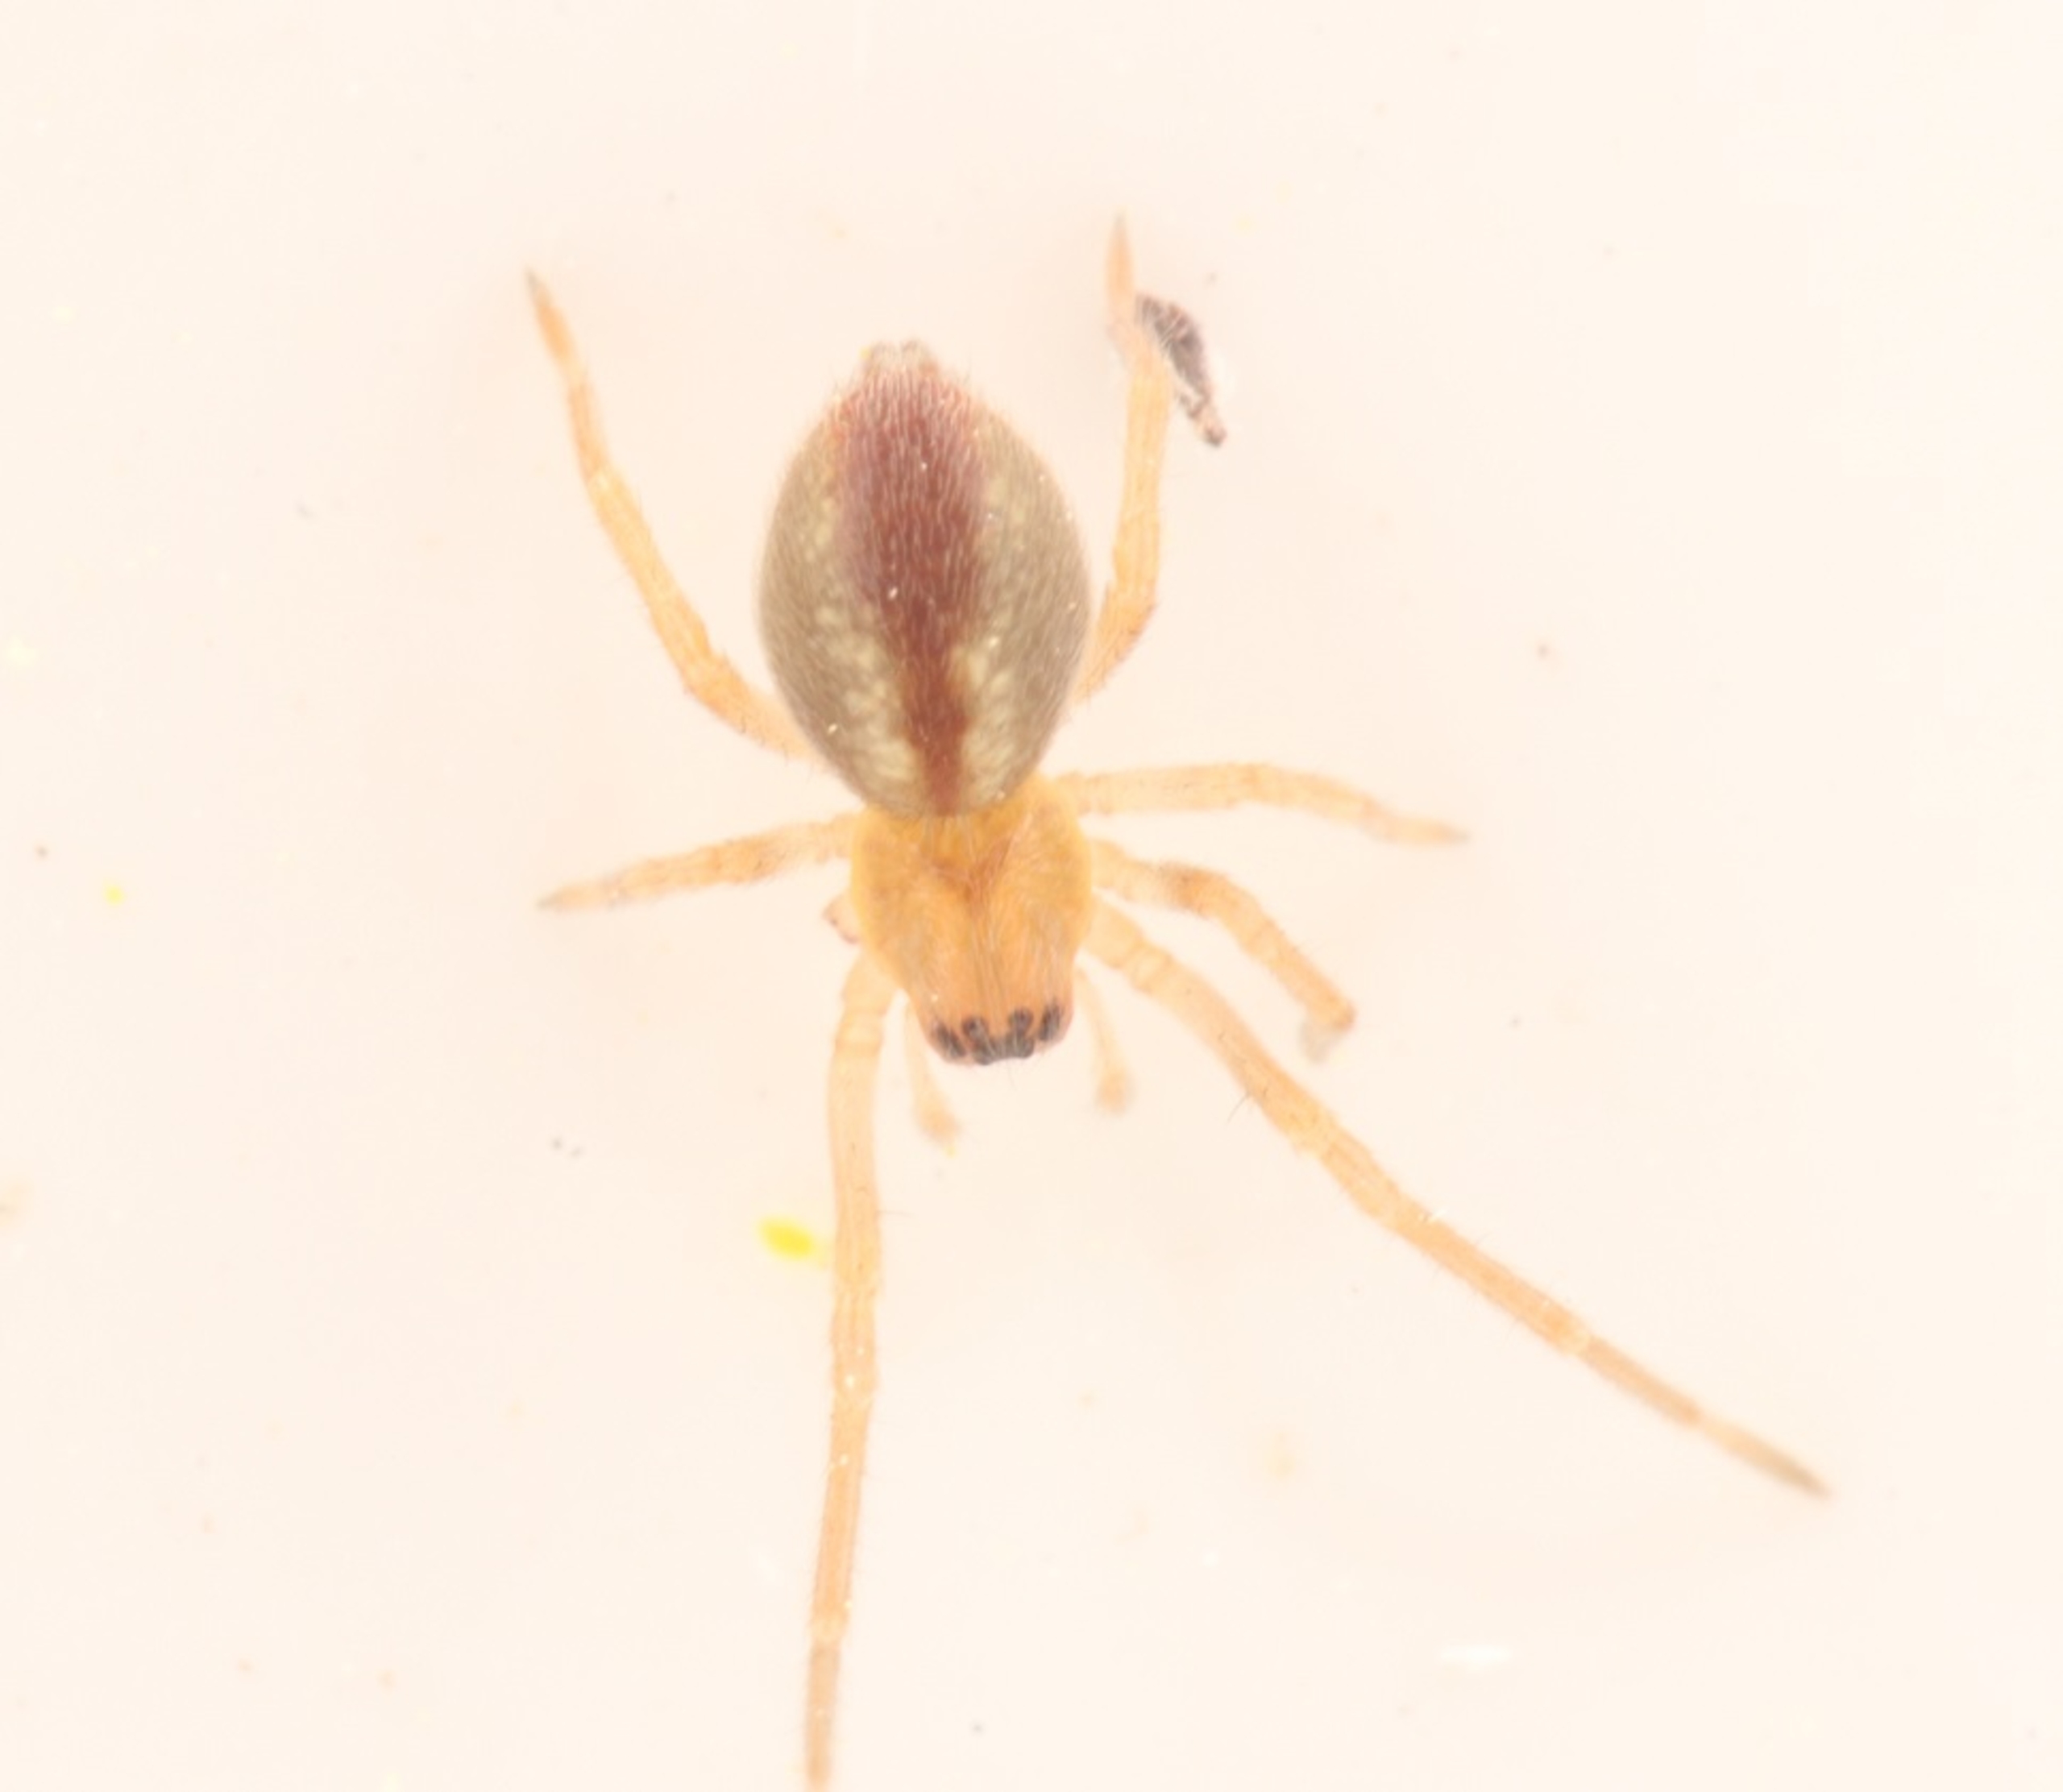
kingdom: Animalia
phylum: Arthropoda
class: Arachnida
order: Araneae
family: Cheiracanthiidae
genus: Cheiracanthium
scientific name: Cheiracanthium
